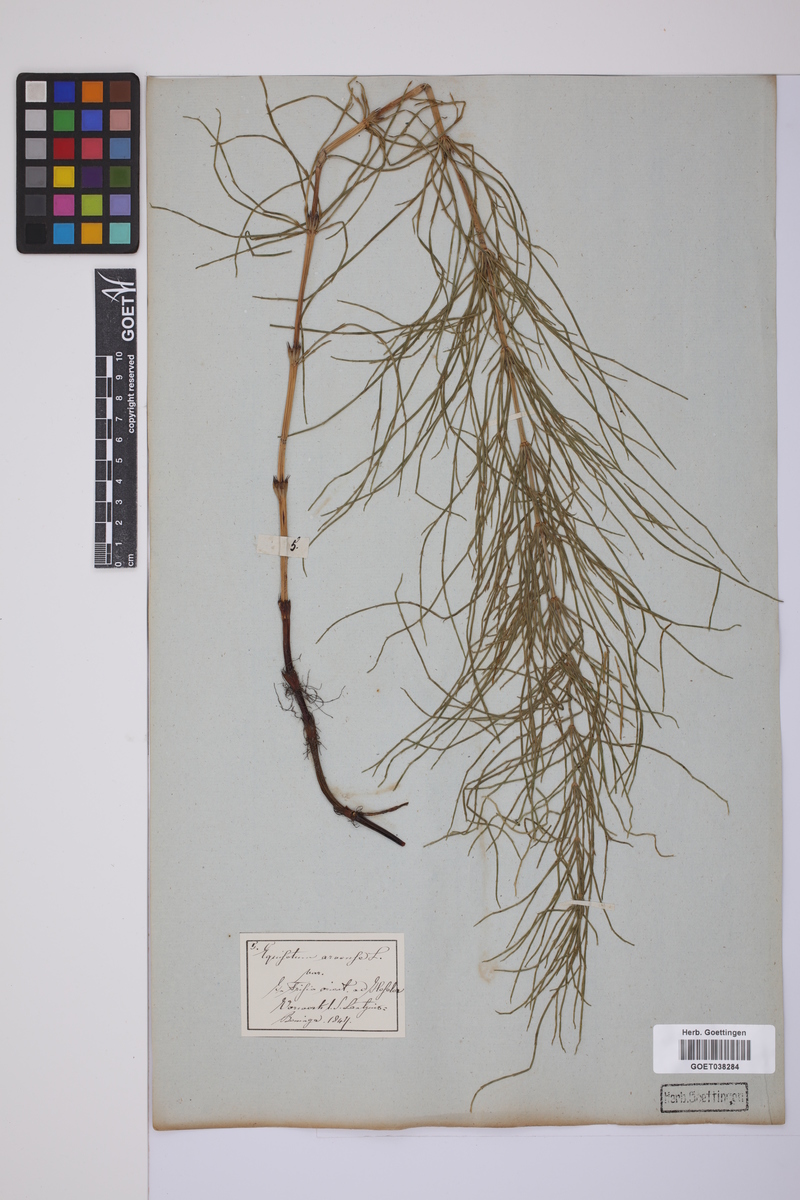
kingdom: Plantae
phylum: Tracheophyta
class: Polypodiopsida
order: Equisetales
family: Equisetaceae
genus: Equisetum
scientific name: Equisetum arvense
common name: Field horsetail
